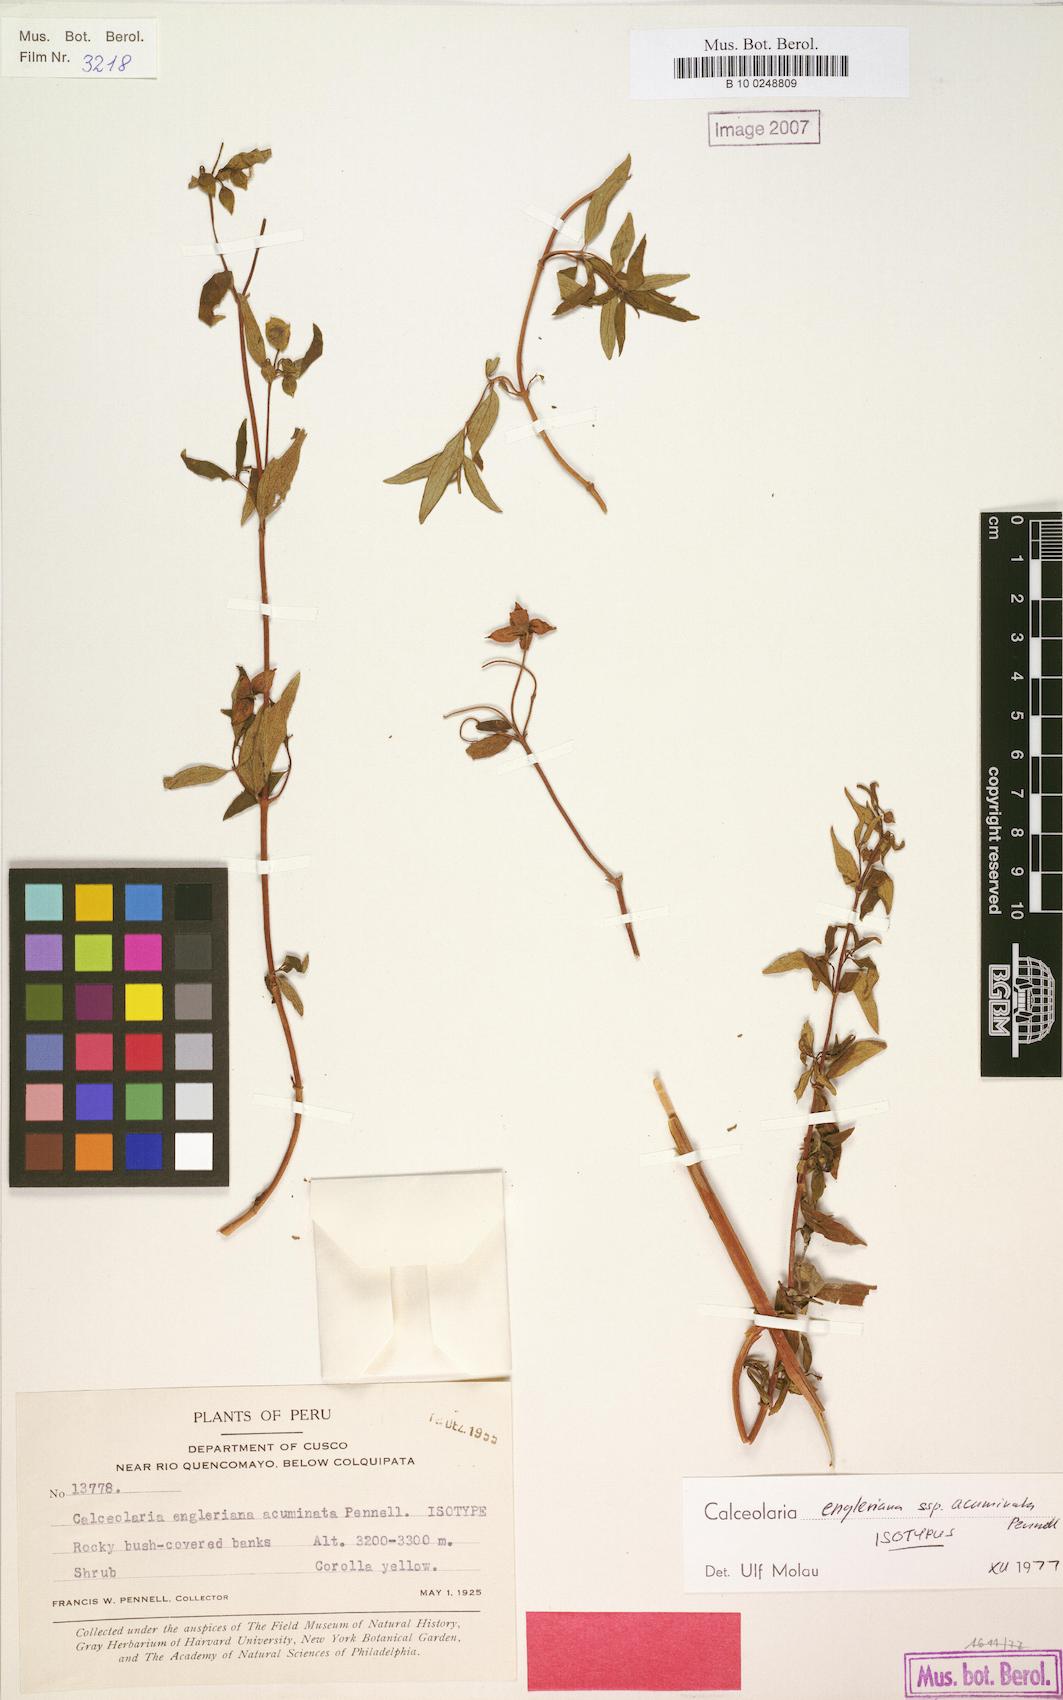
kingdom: Plantae
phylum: Tracheophyta
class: Magnoliopsida
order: Lamiales
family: Calceolariaceae
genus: Calceolaria
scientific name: Calceolaria engleriana
